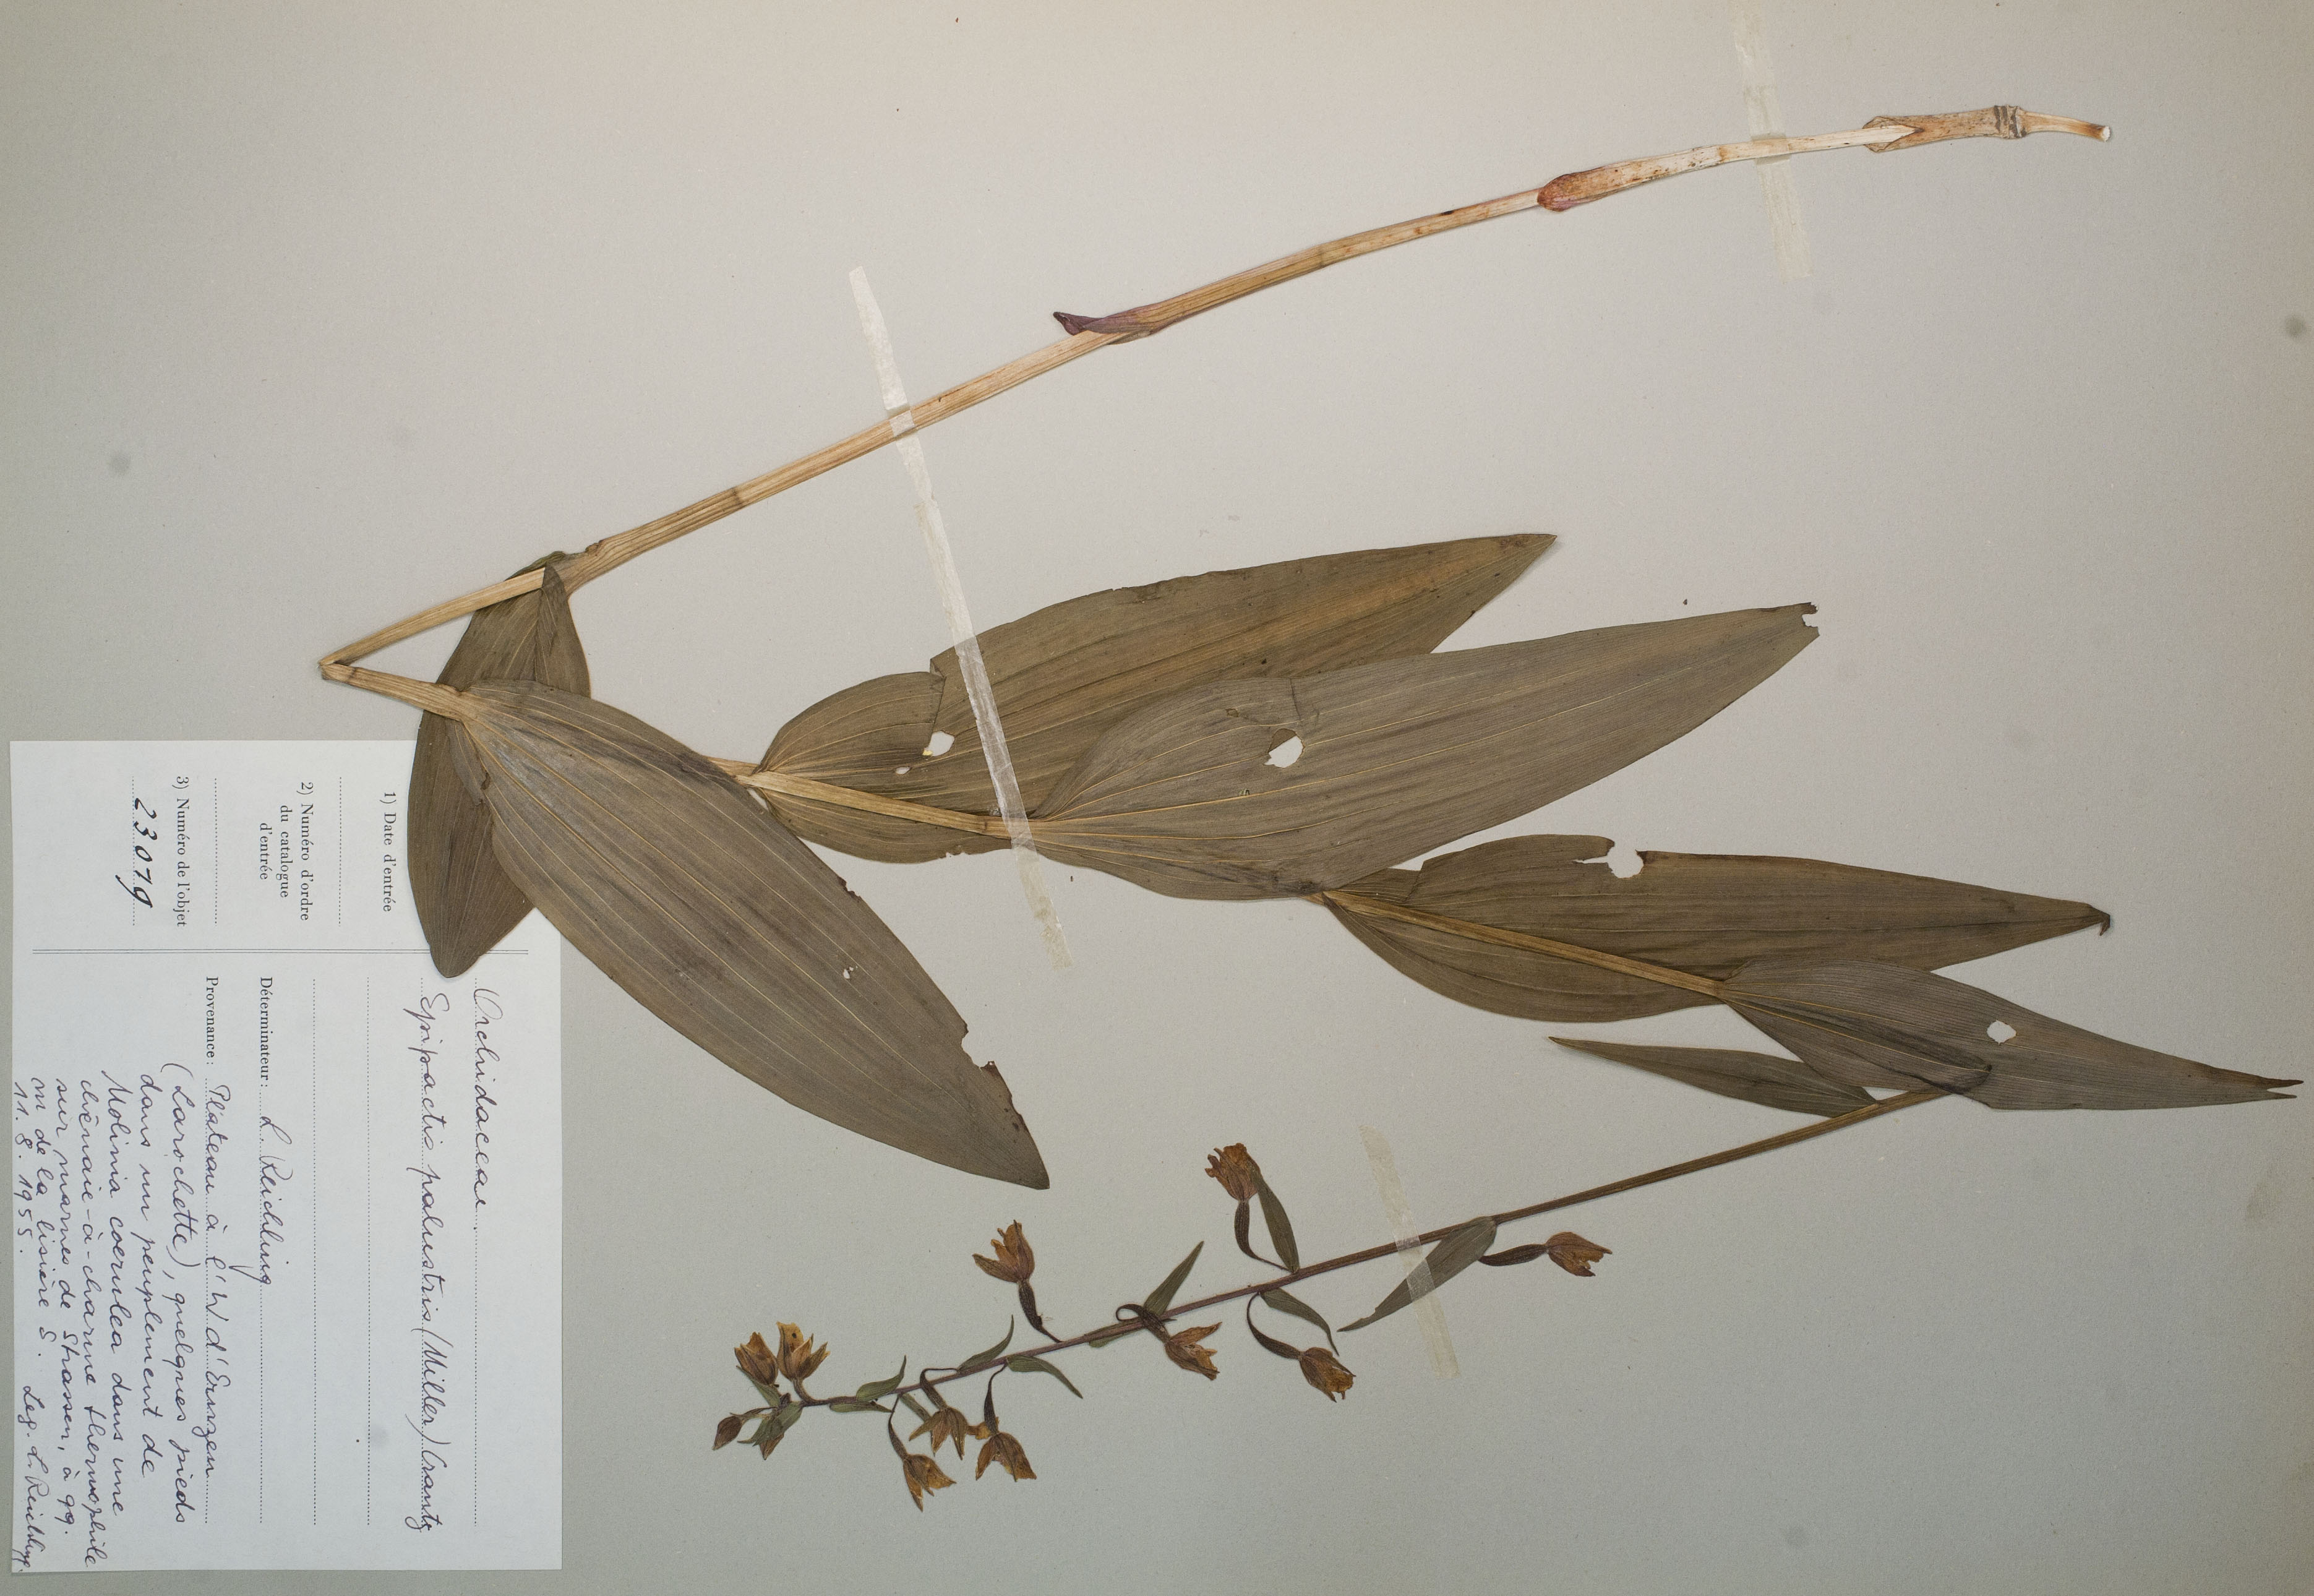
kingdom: Plantae
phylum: Tracheophyta
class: Liliopsida
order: Asparagales
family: Orchidaceae
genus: Epipactis
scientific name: Epipactis palustris
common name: Marsh helleborine
